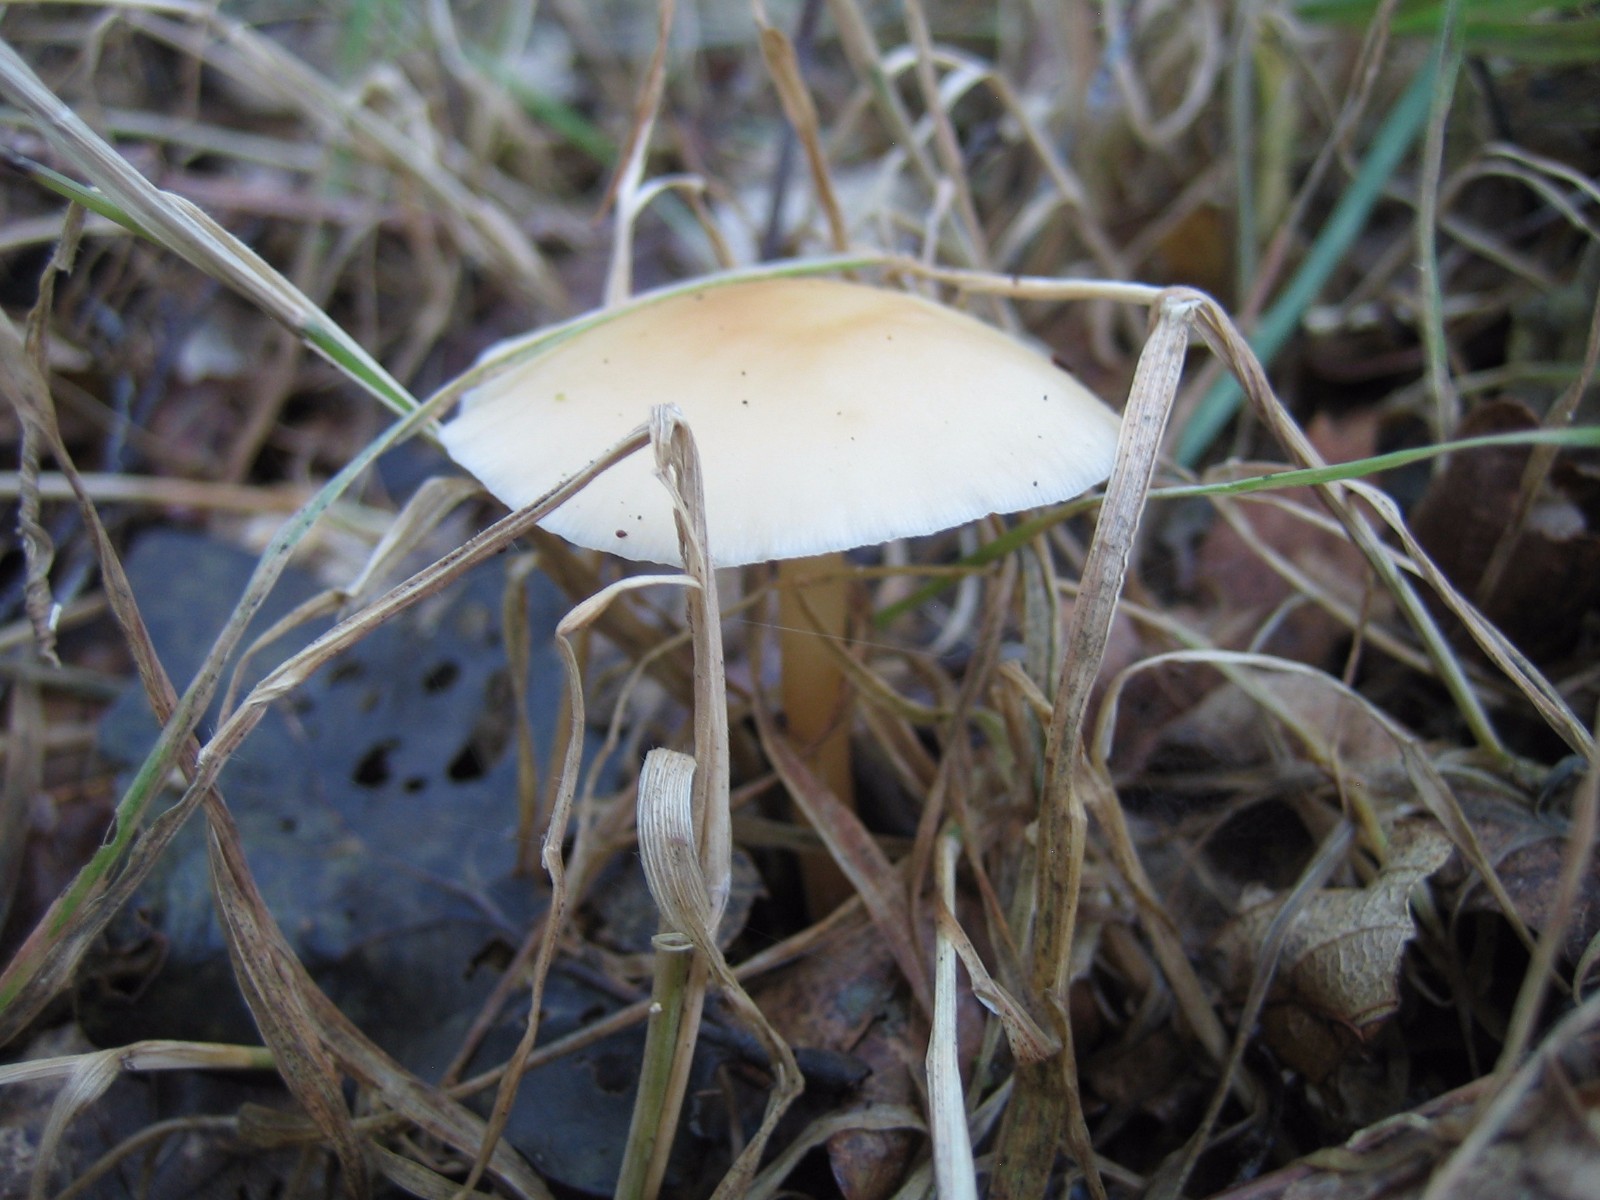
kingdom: Fungi
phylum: Basidiomycota
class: Agaricomycetes
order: Agaricales
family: Omphalotaceae
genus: Gymnopus
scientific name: Gymnopus dryophilus
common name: løv-fladhat
